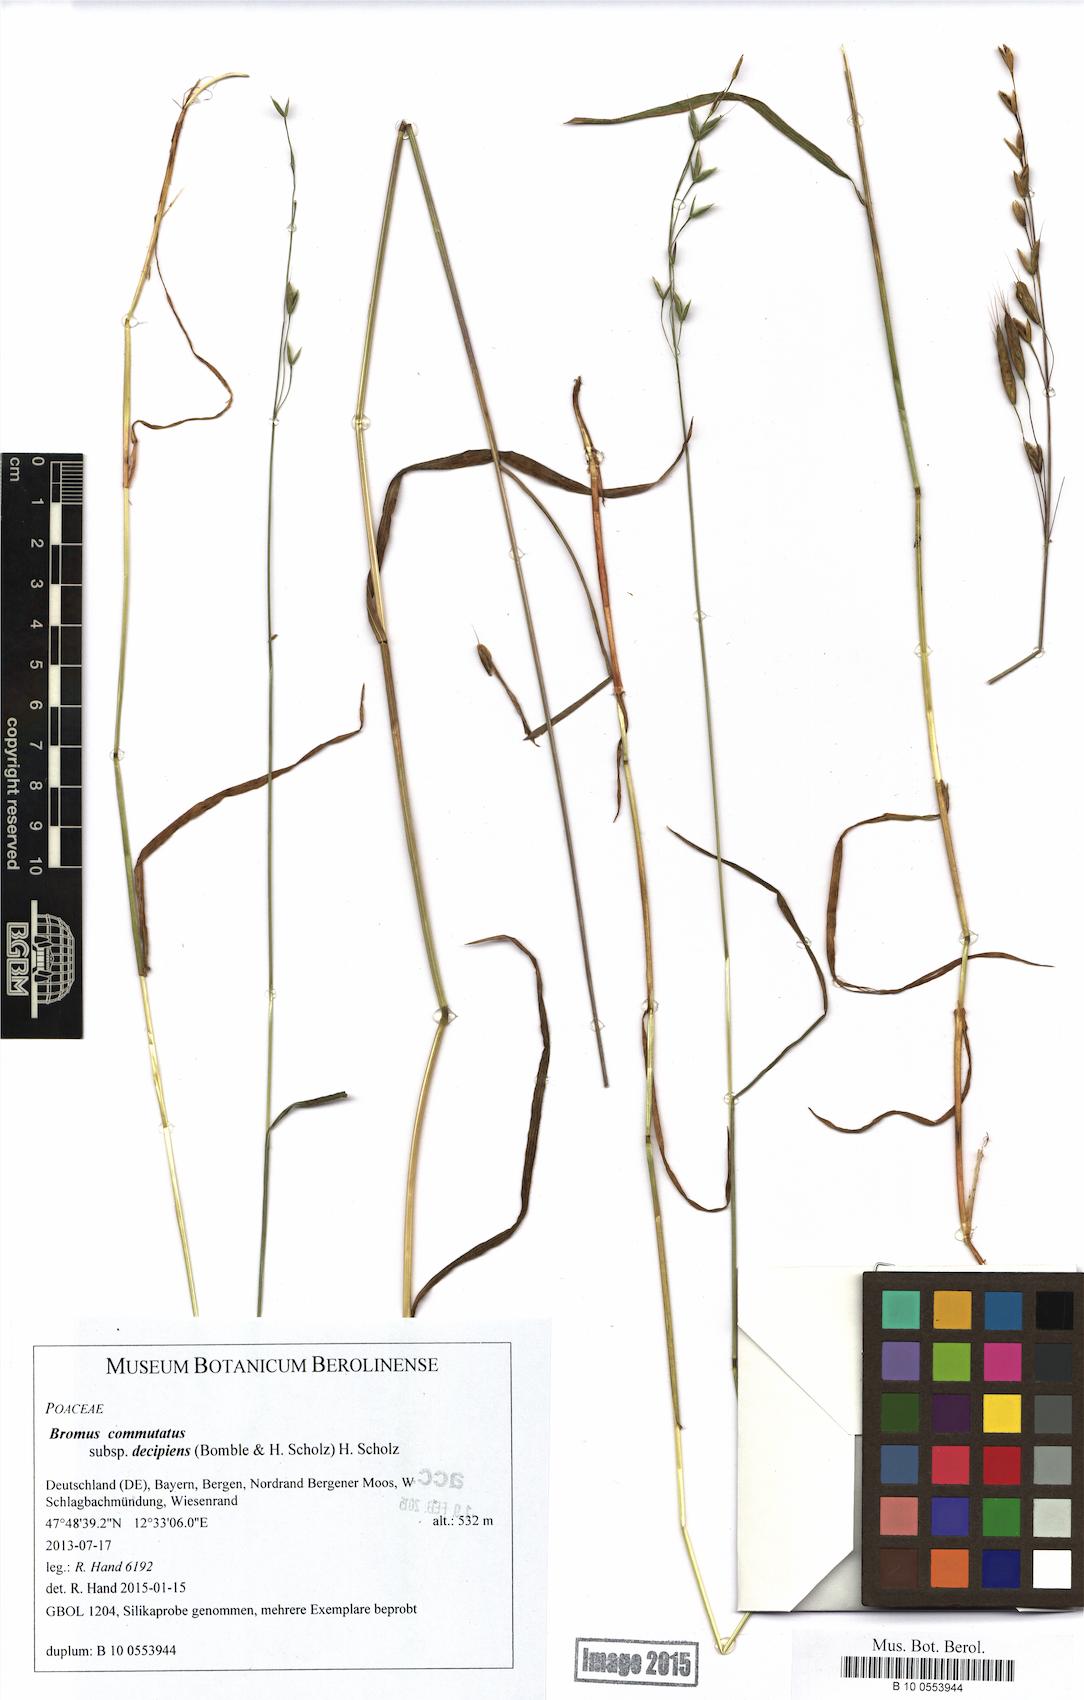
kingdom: Plantae
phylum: Tracheophyta
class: Liliopsida
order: Poales
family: Poaceae
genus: Bromus
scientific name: Bromus commutatus
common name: Meadow brome
